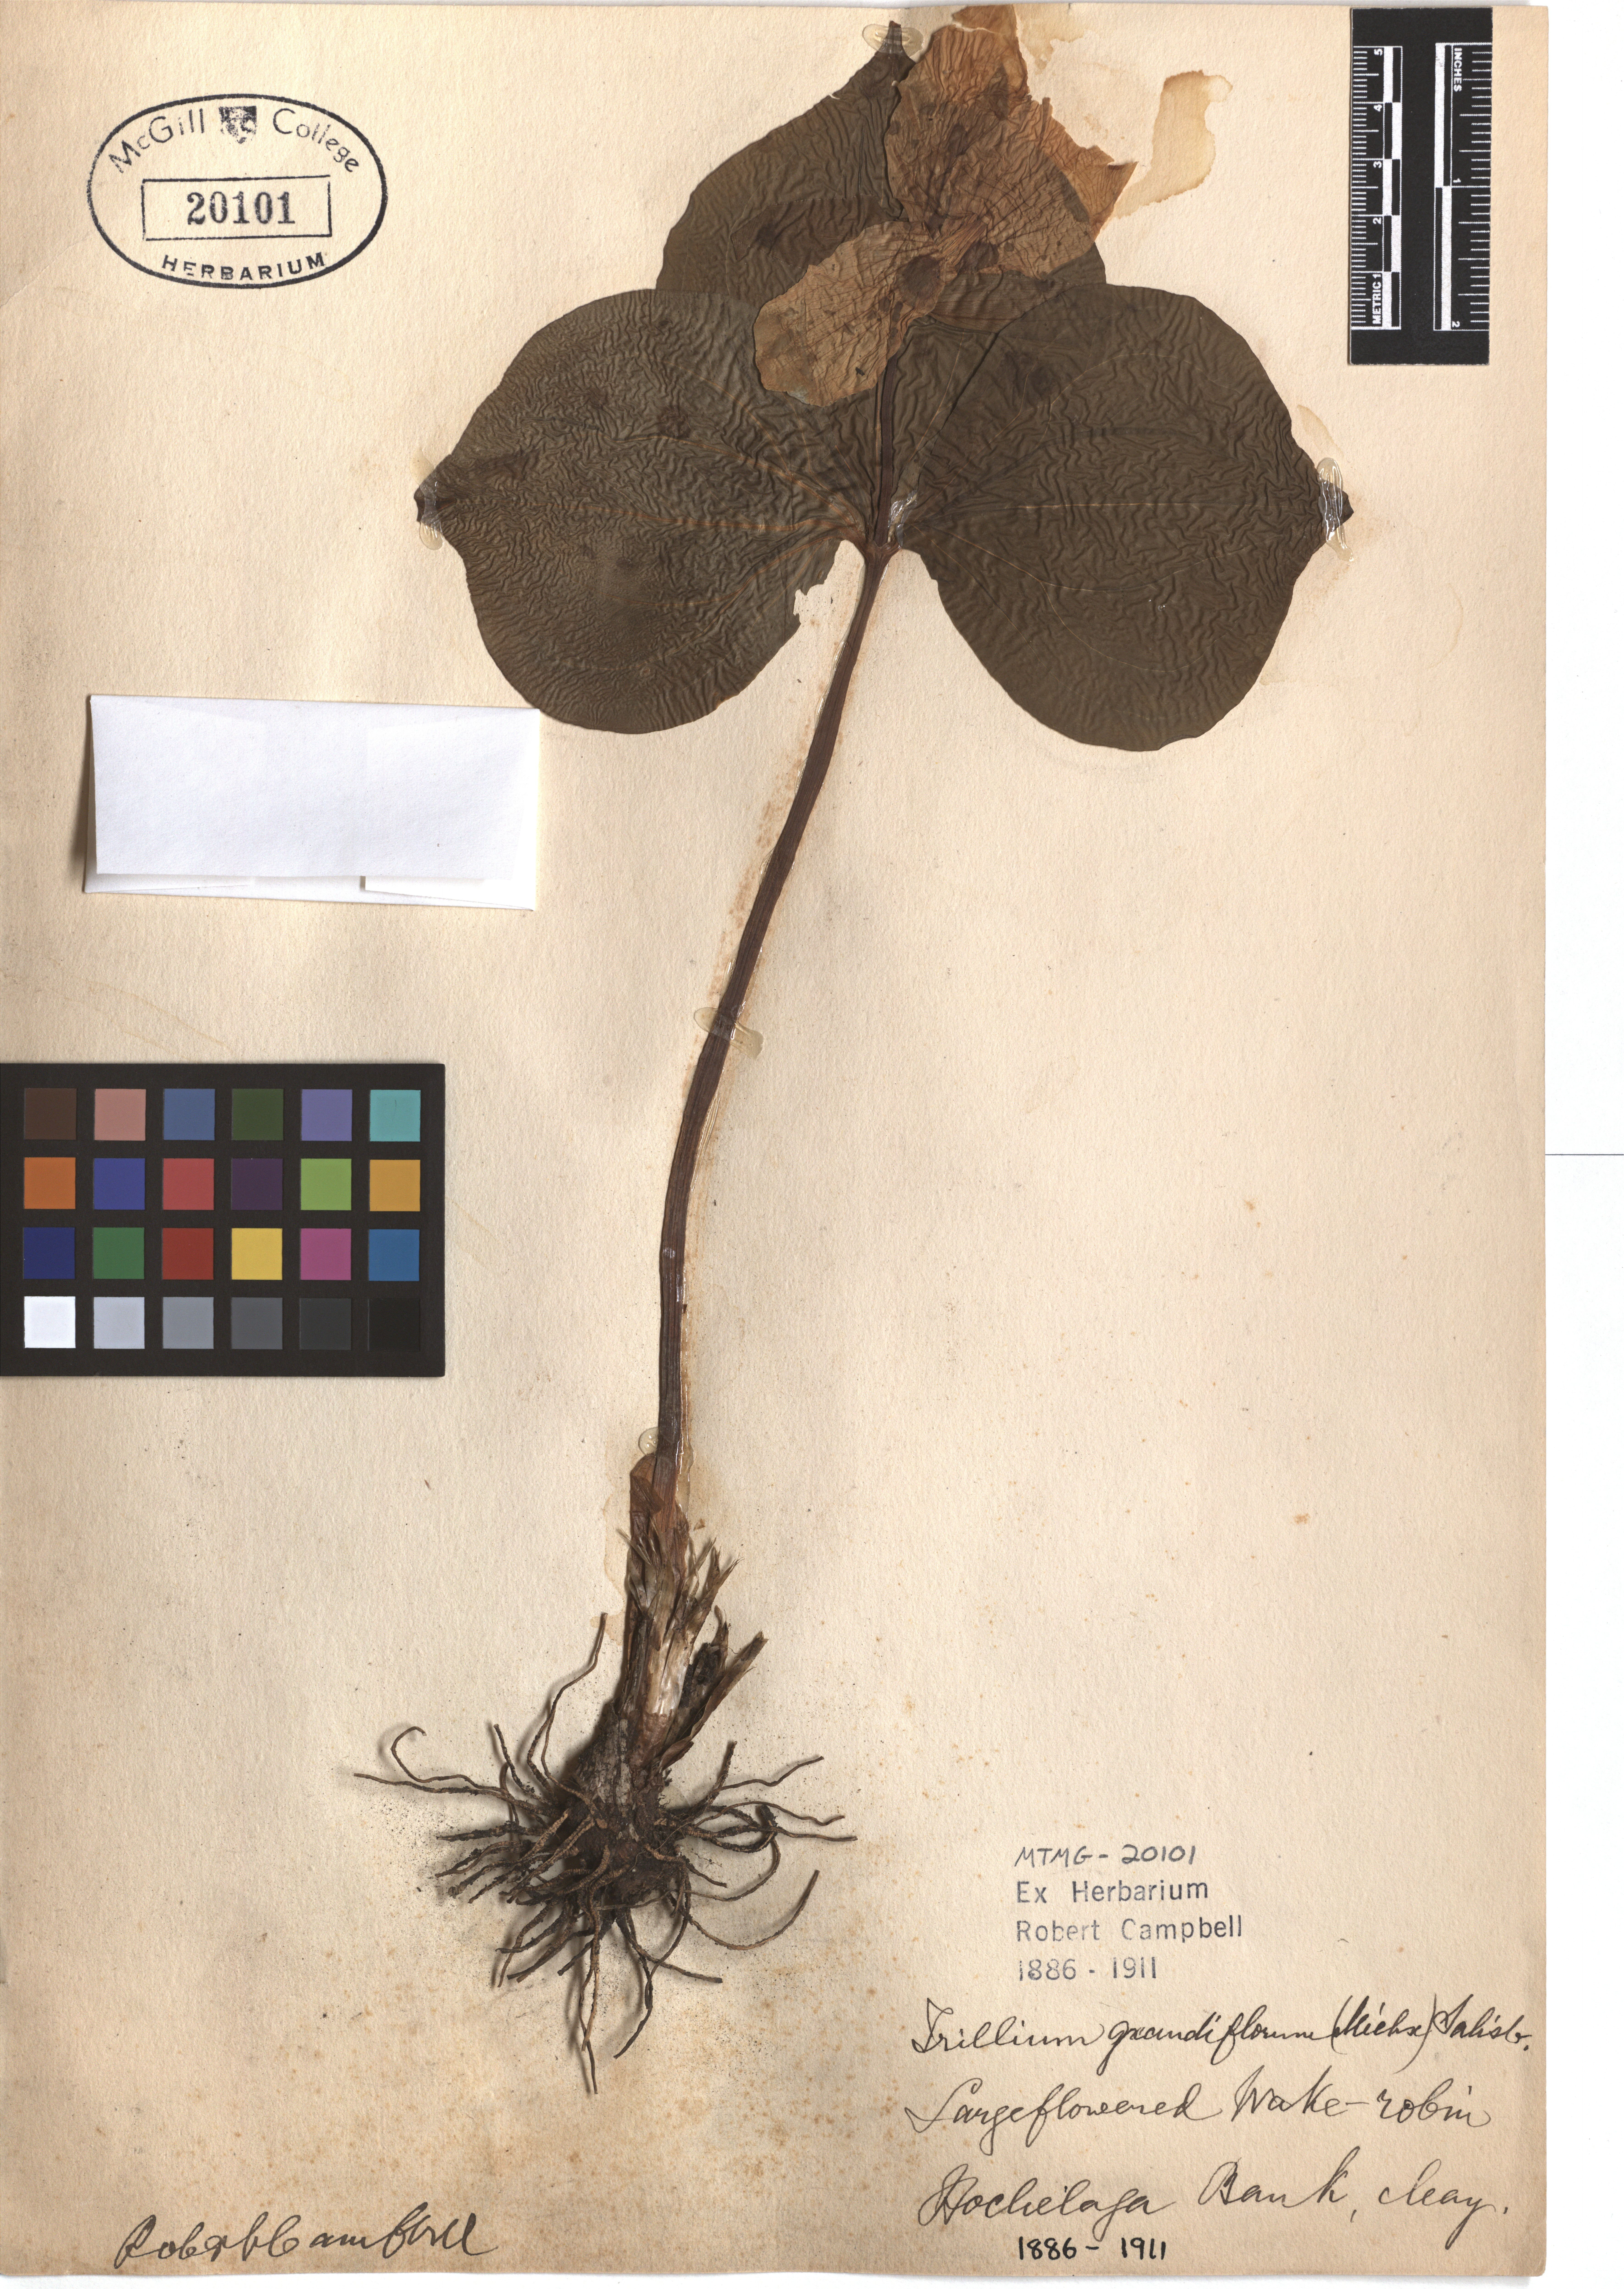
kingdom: Plantae
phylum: Tracheophyta
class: Liliopsida
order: Liliales
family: Melanthiaceae
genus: Trillium
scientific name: Trillium grandiflorum
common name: Great white trillium
